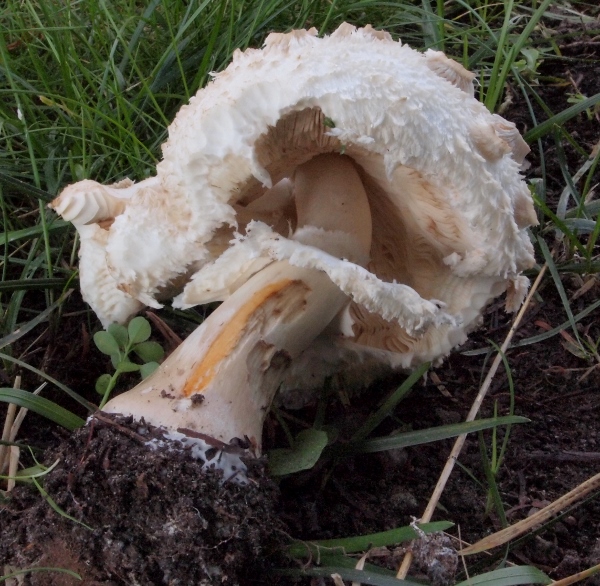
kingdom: Fungi
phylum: Basidiomycota
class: Agaricomycetes
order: Agaricales
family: Agaricaceae
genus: Chlorophyllum
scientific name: Chlorophyllum brunneum
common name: giftig rabarberhat
